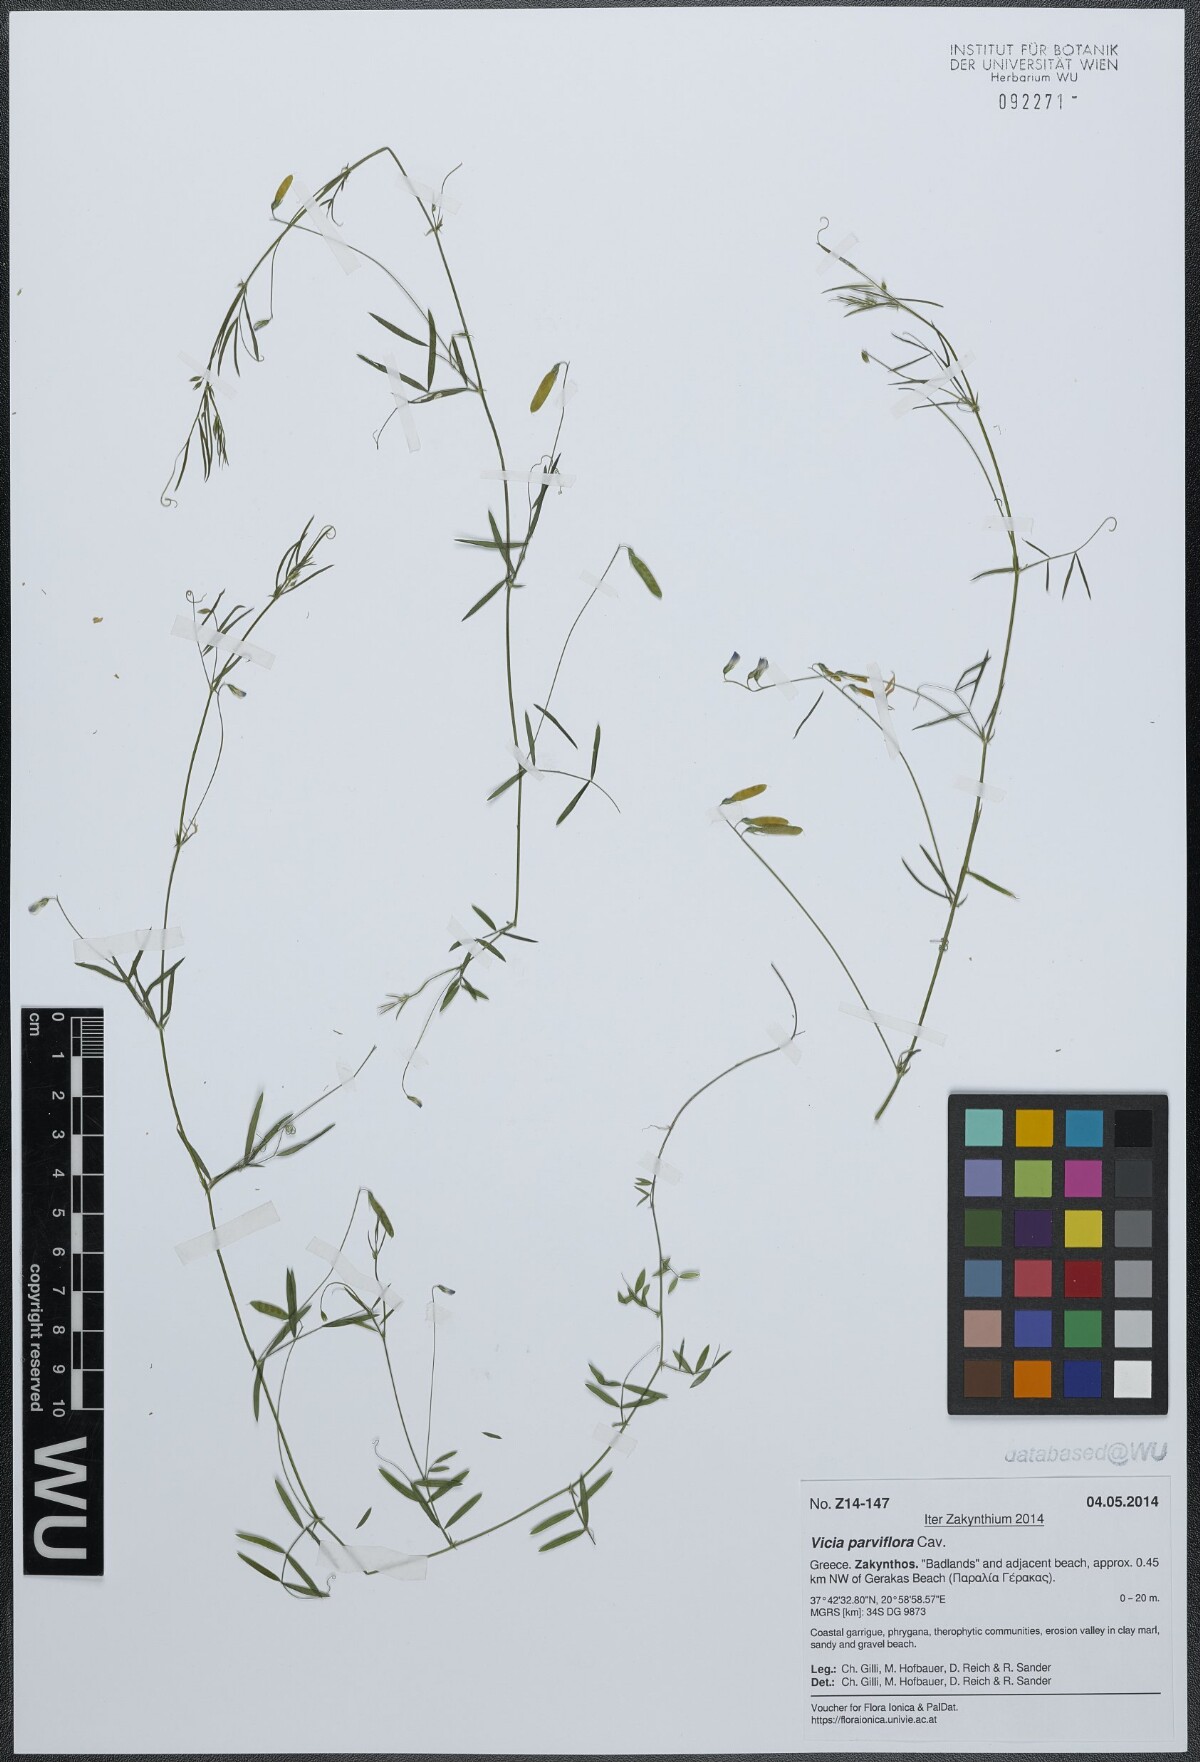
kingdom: Plantae
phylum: Tracheophyta
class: Magnoliopsida
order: Fabales
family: Fabaceae
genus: Vicia
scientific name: Vicia parviflora
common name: Slender tare
